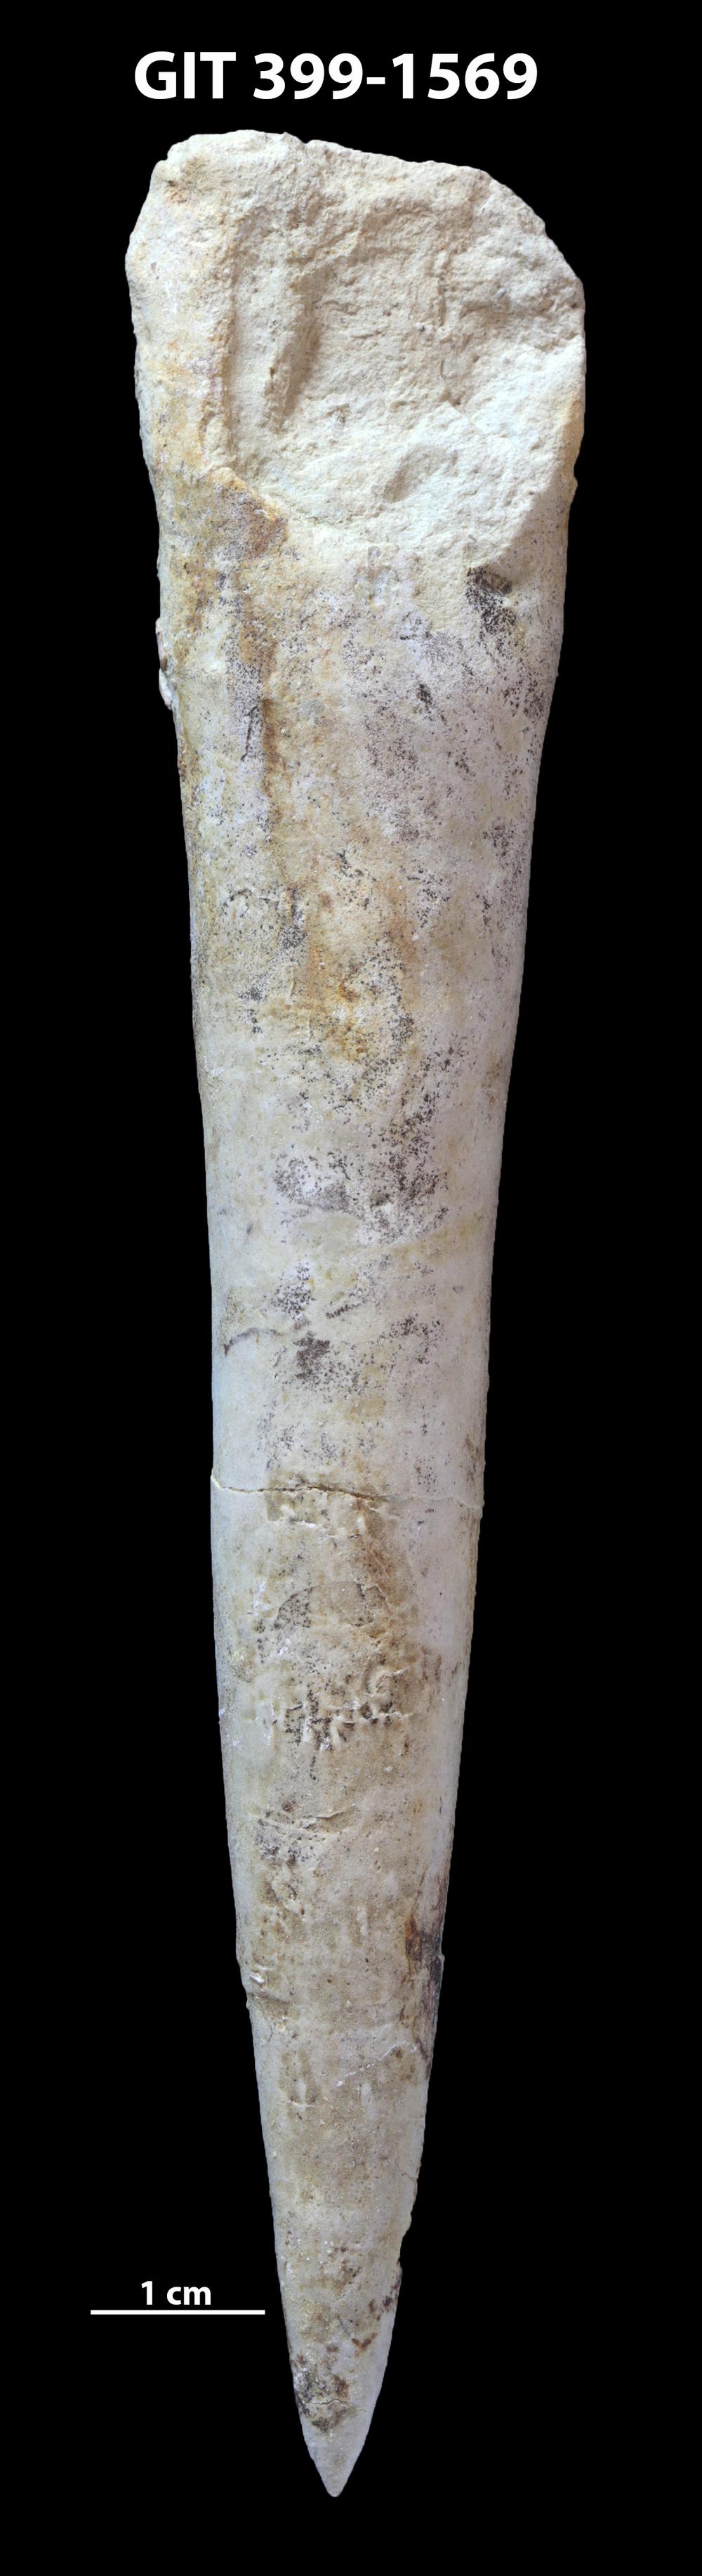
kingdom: Animalia
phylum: Mollusca
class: Cephalopoda
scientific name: Cephalopoda
